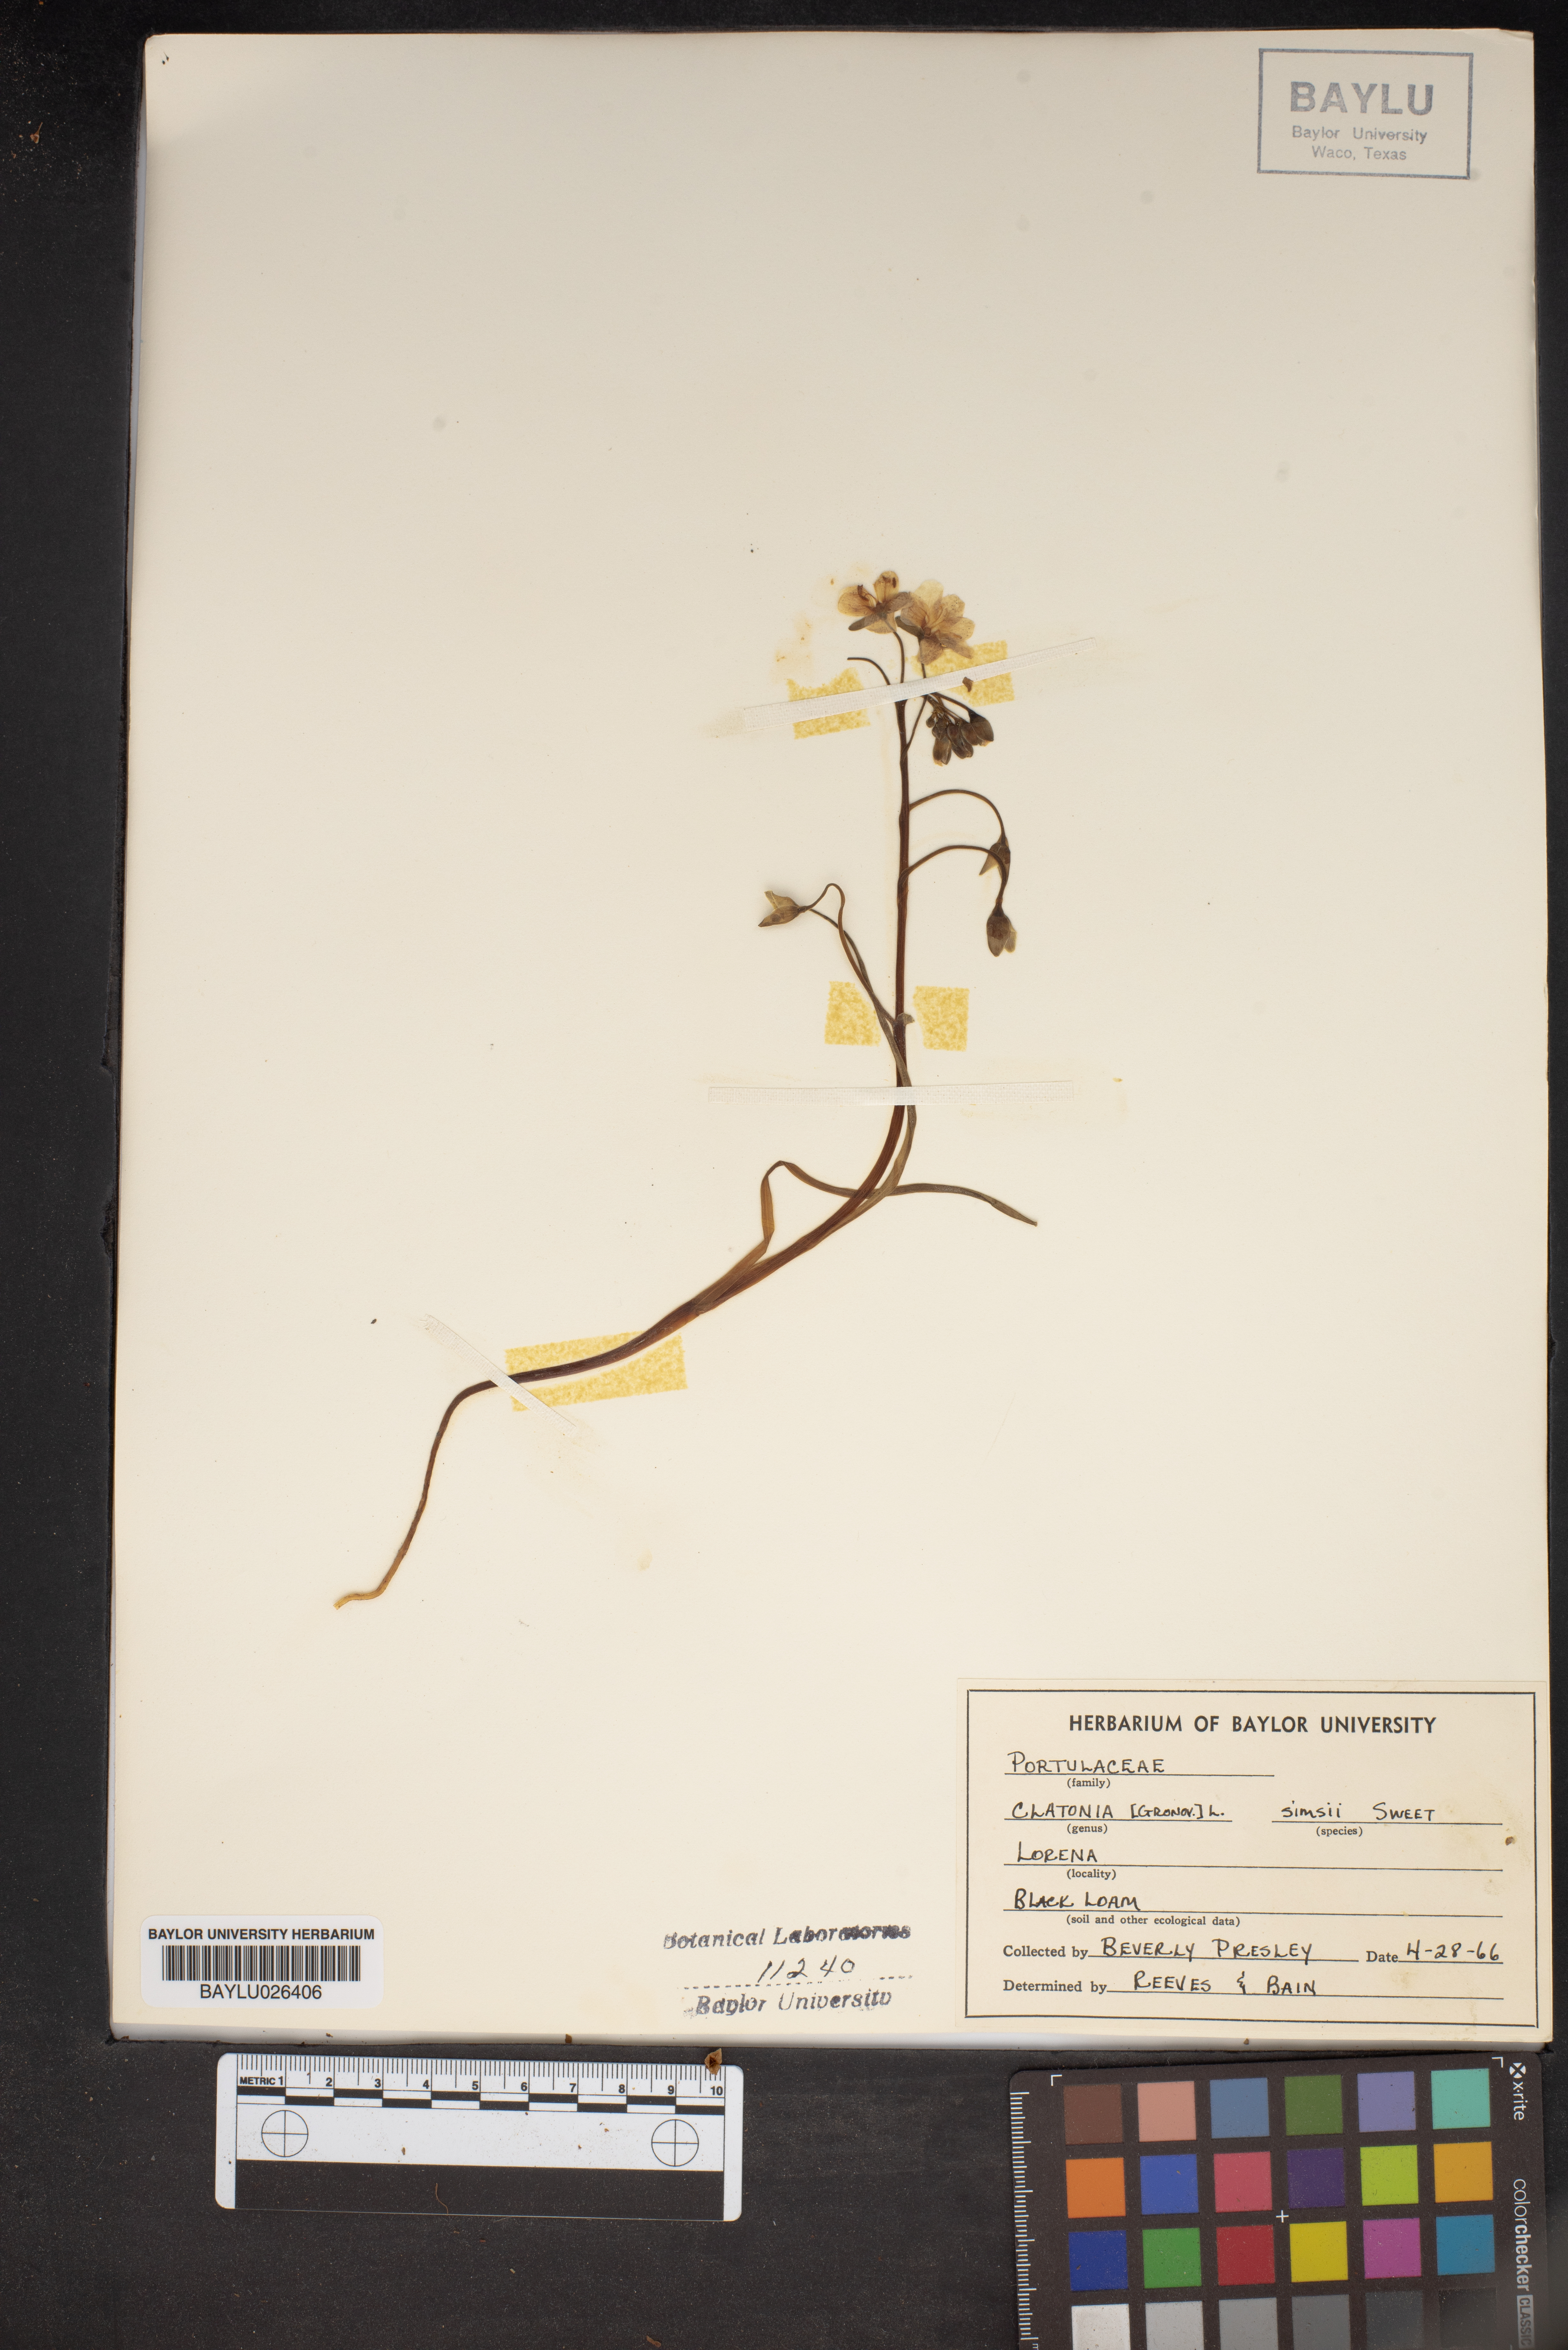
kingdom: Plantae
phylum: Tracheophyta
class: Magnoliopsida
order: Caryophyllales
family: Montiaceae
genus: Claytonia
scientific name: Claytonia virginica
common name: Virginia springbeauty
